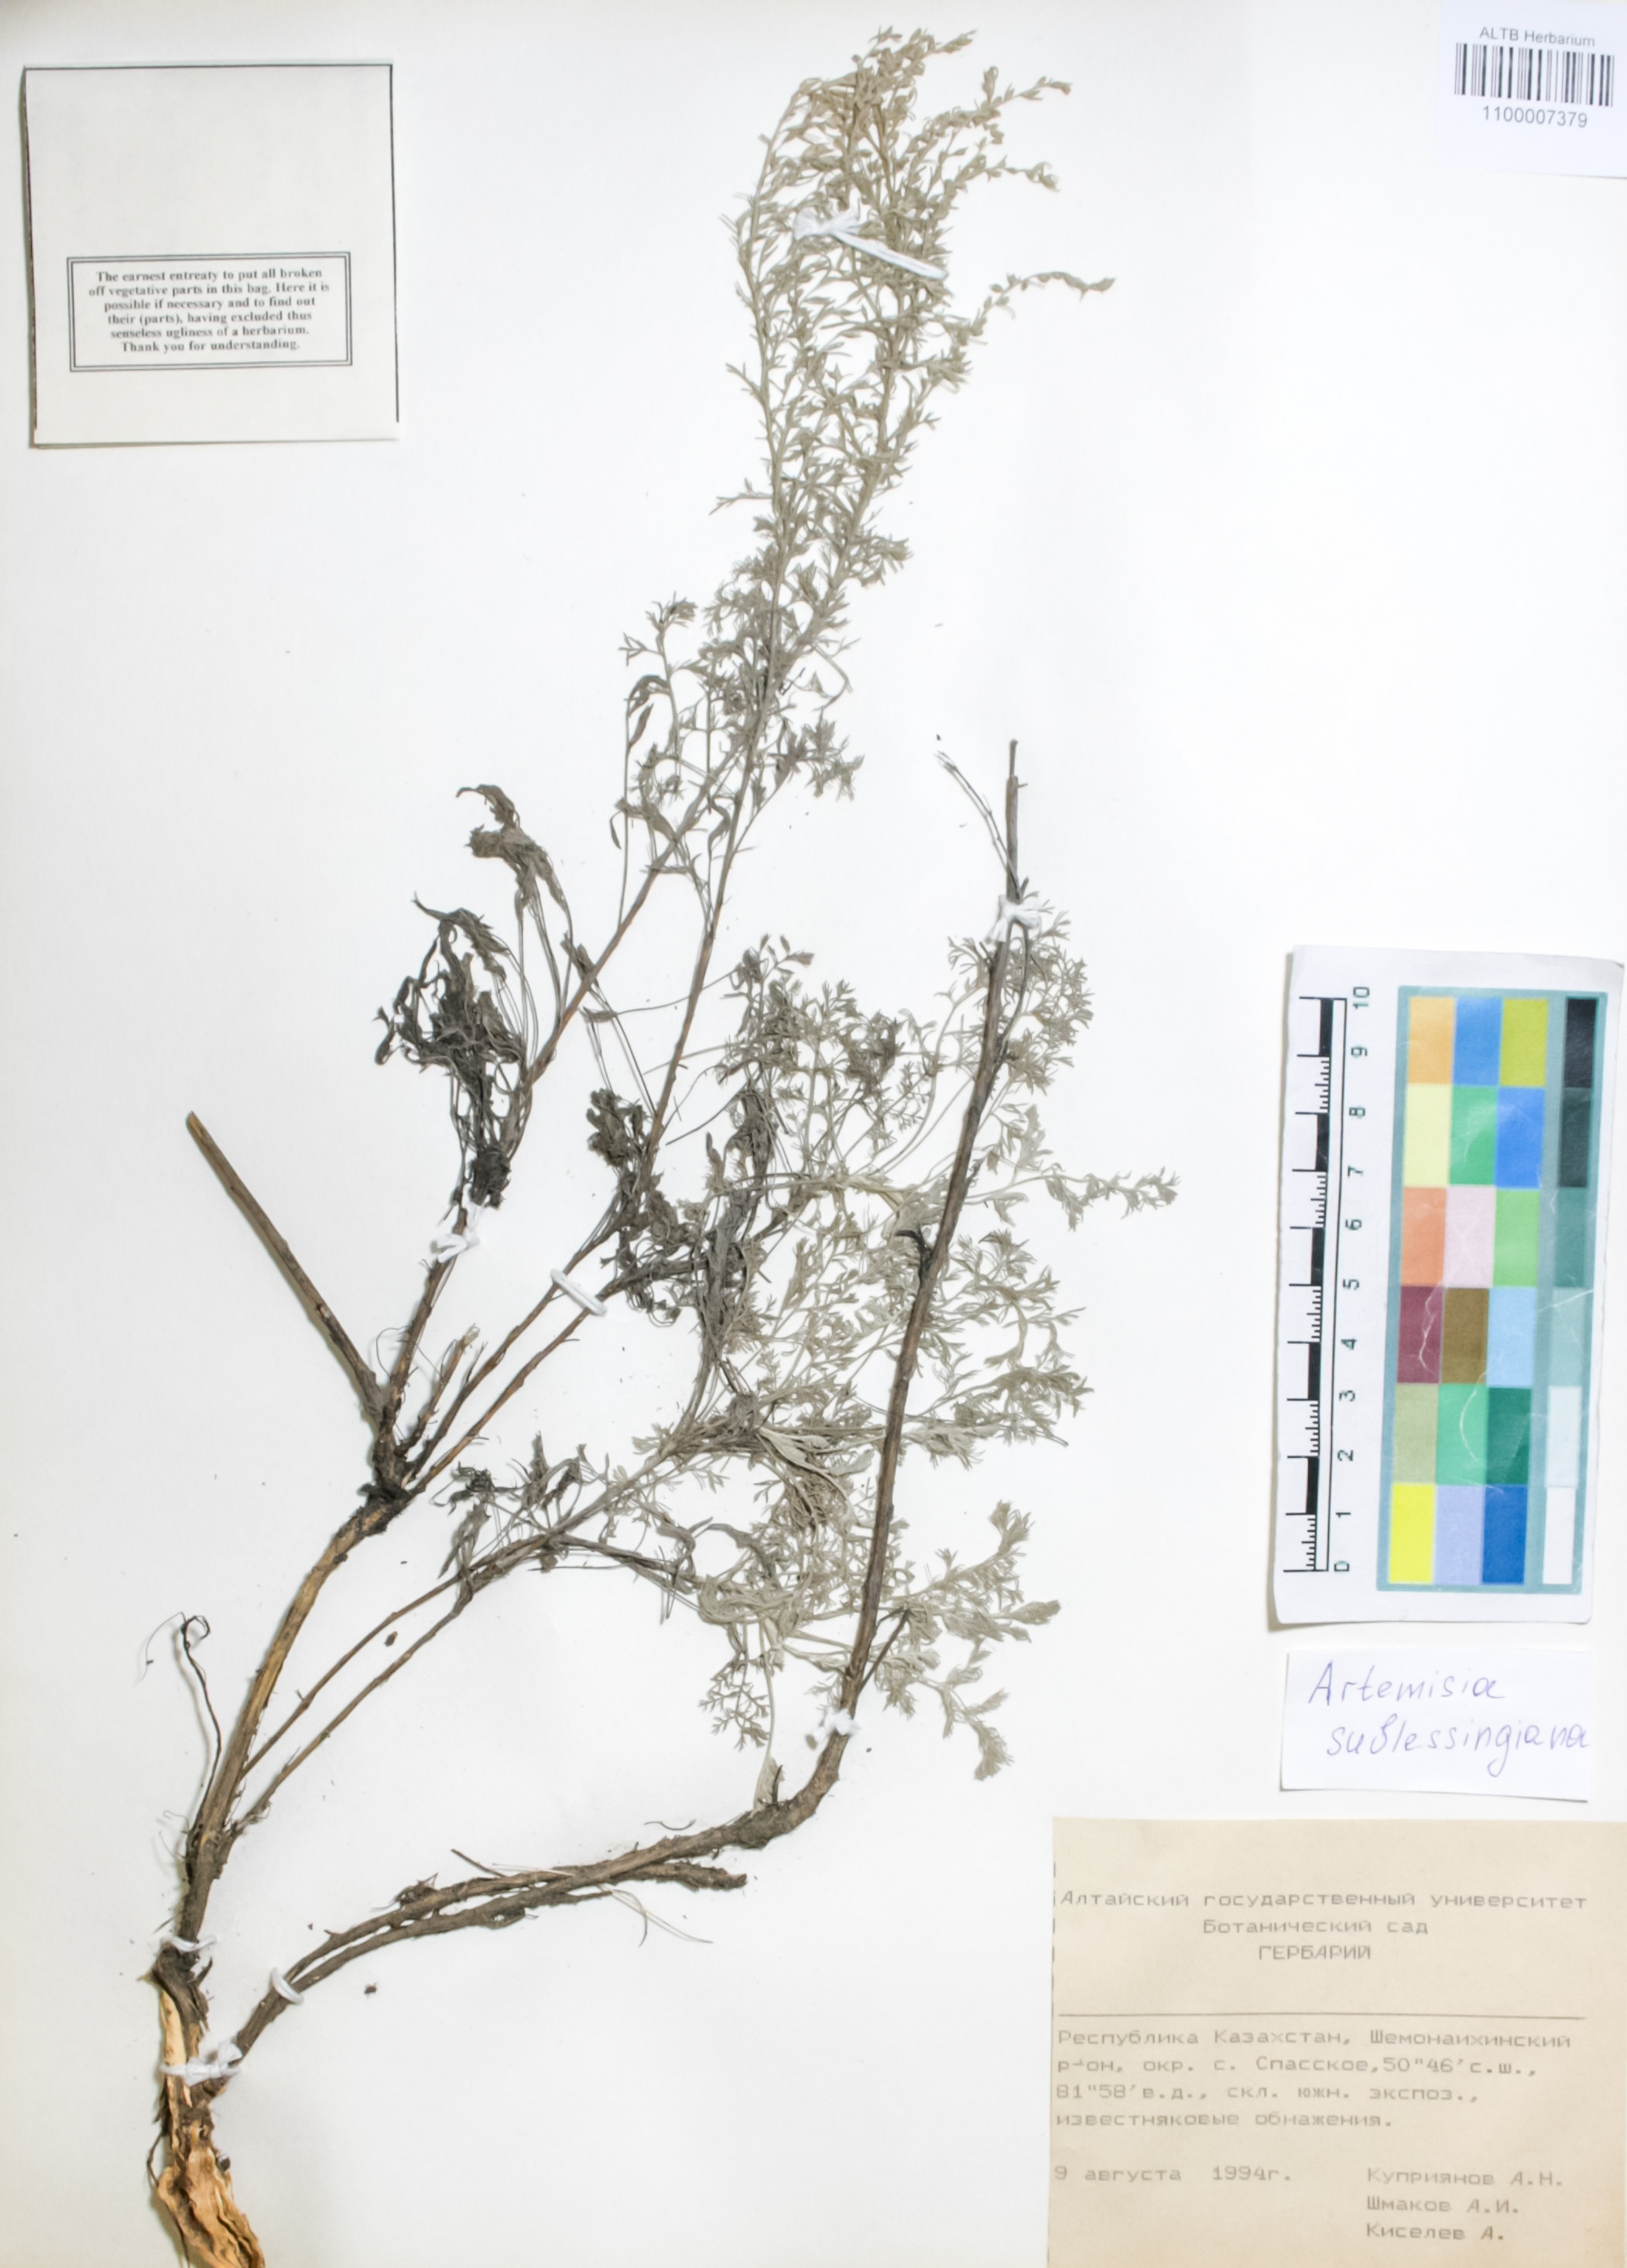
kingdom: Plantae
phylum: Tracheophyta
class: Magnoliopsida
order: Asterales
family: Asteraceae
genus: Artemisia
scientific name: Artemisia sublessingiana
